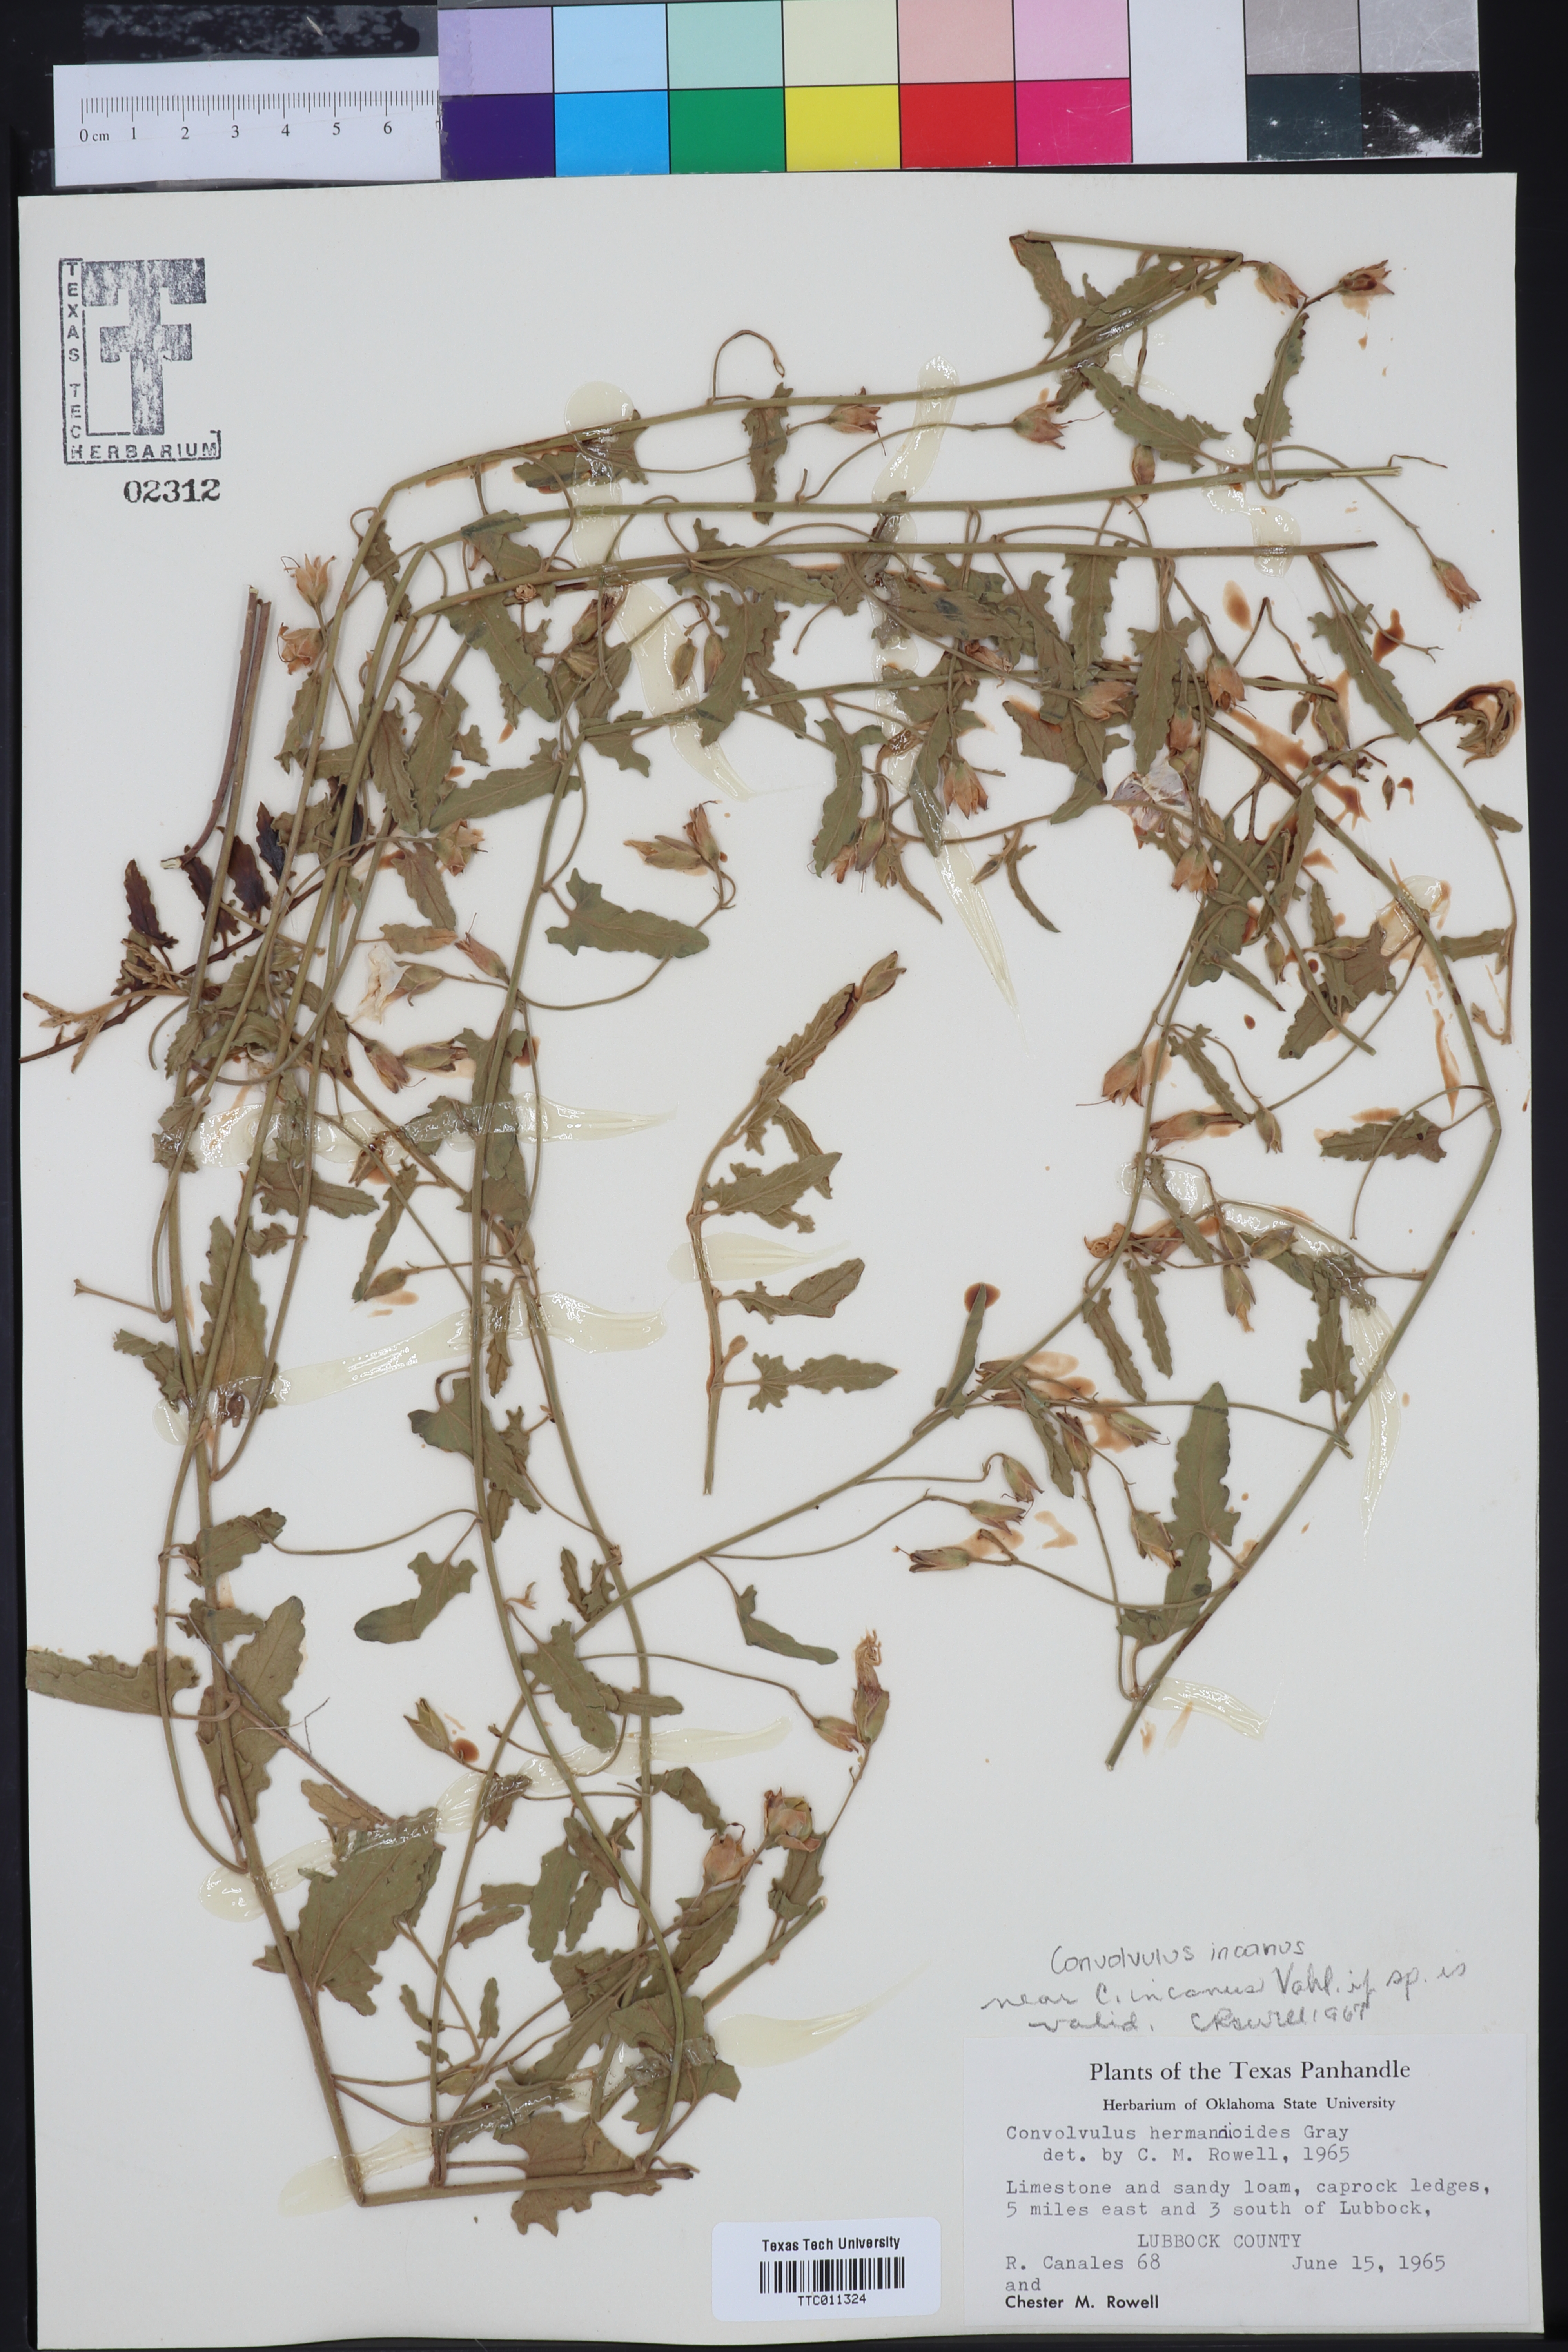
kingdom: Plantae
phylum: Tracheophyta
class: Magnoliopsida
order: Solanales
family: Convolvulaceae
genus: Convolvulus
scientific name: Convolvulus hermanniae
